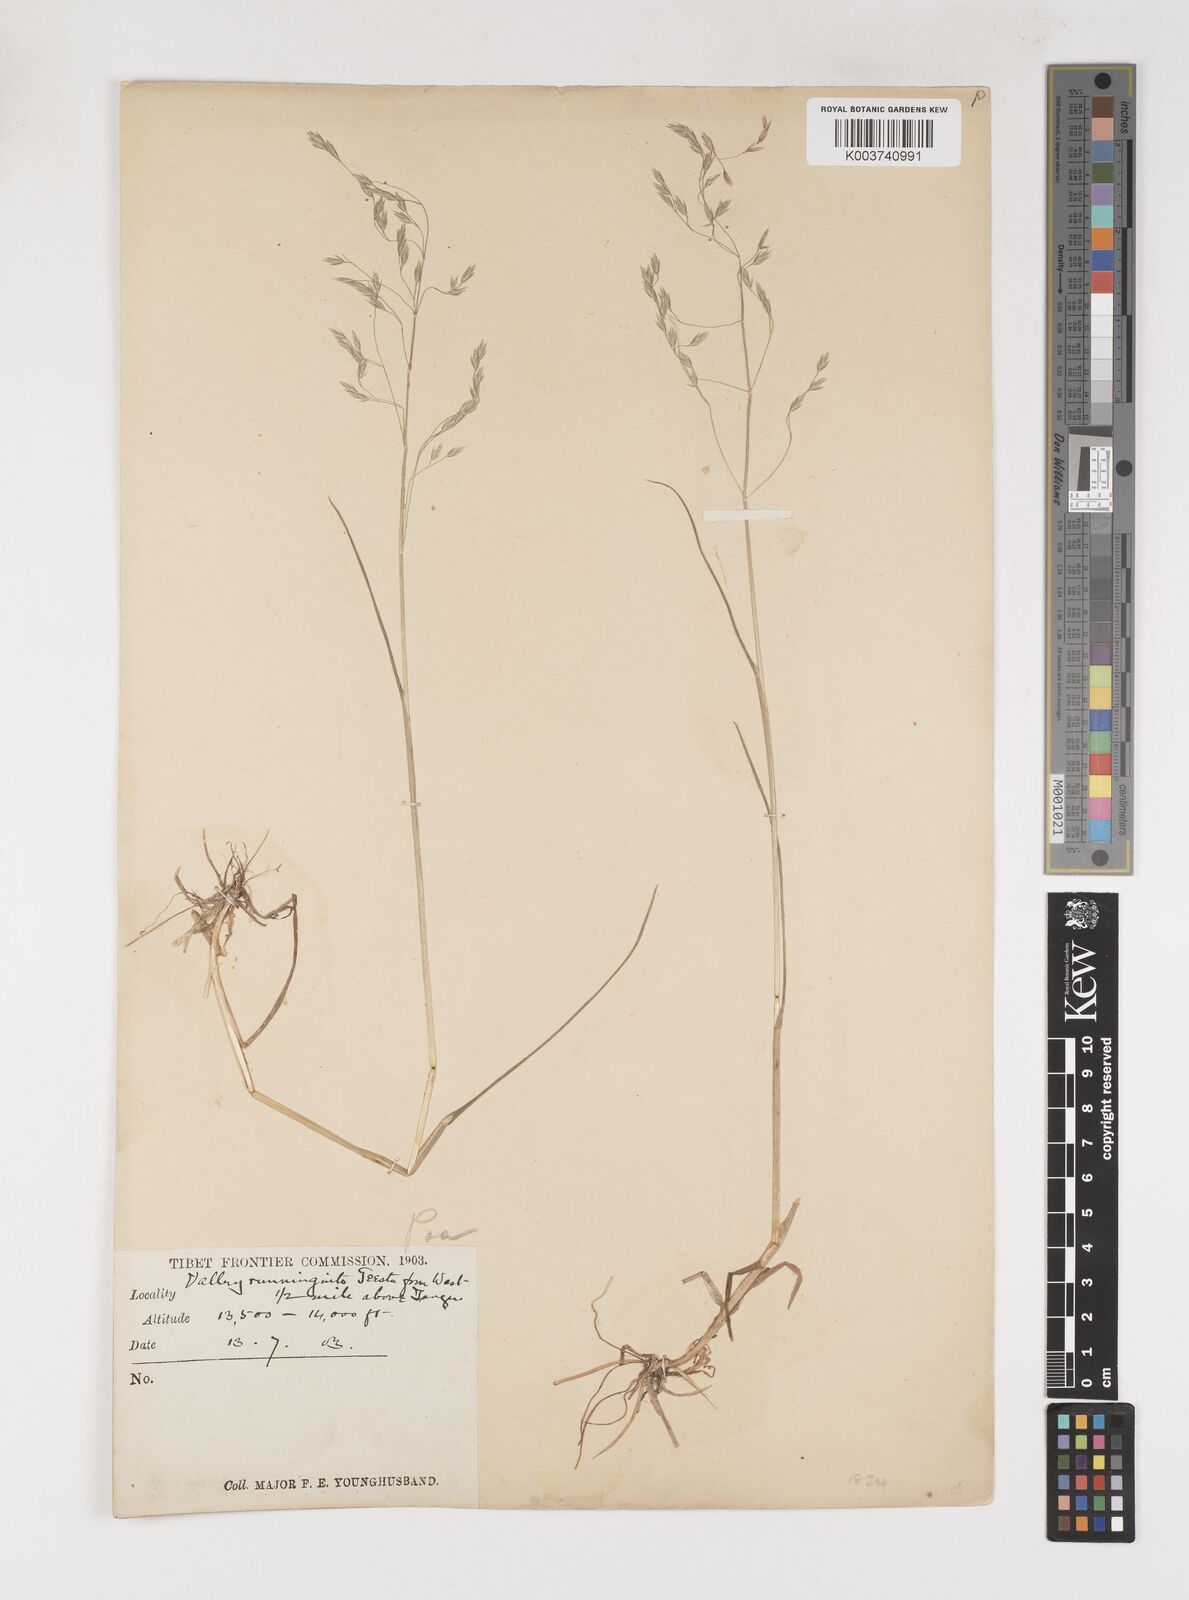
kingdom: Plantae
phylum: Tracheophyta
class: Liliopsida
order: Poales
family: Poaceae
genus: Poa
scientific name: Poa nitidespiculata
